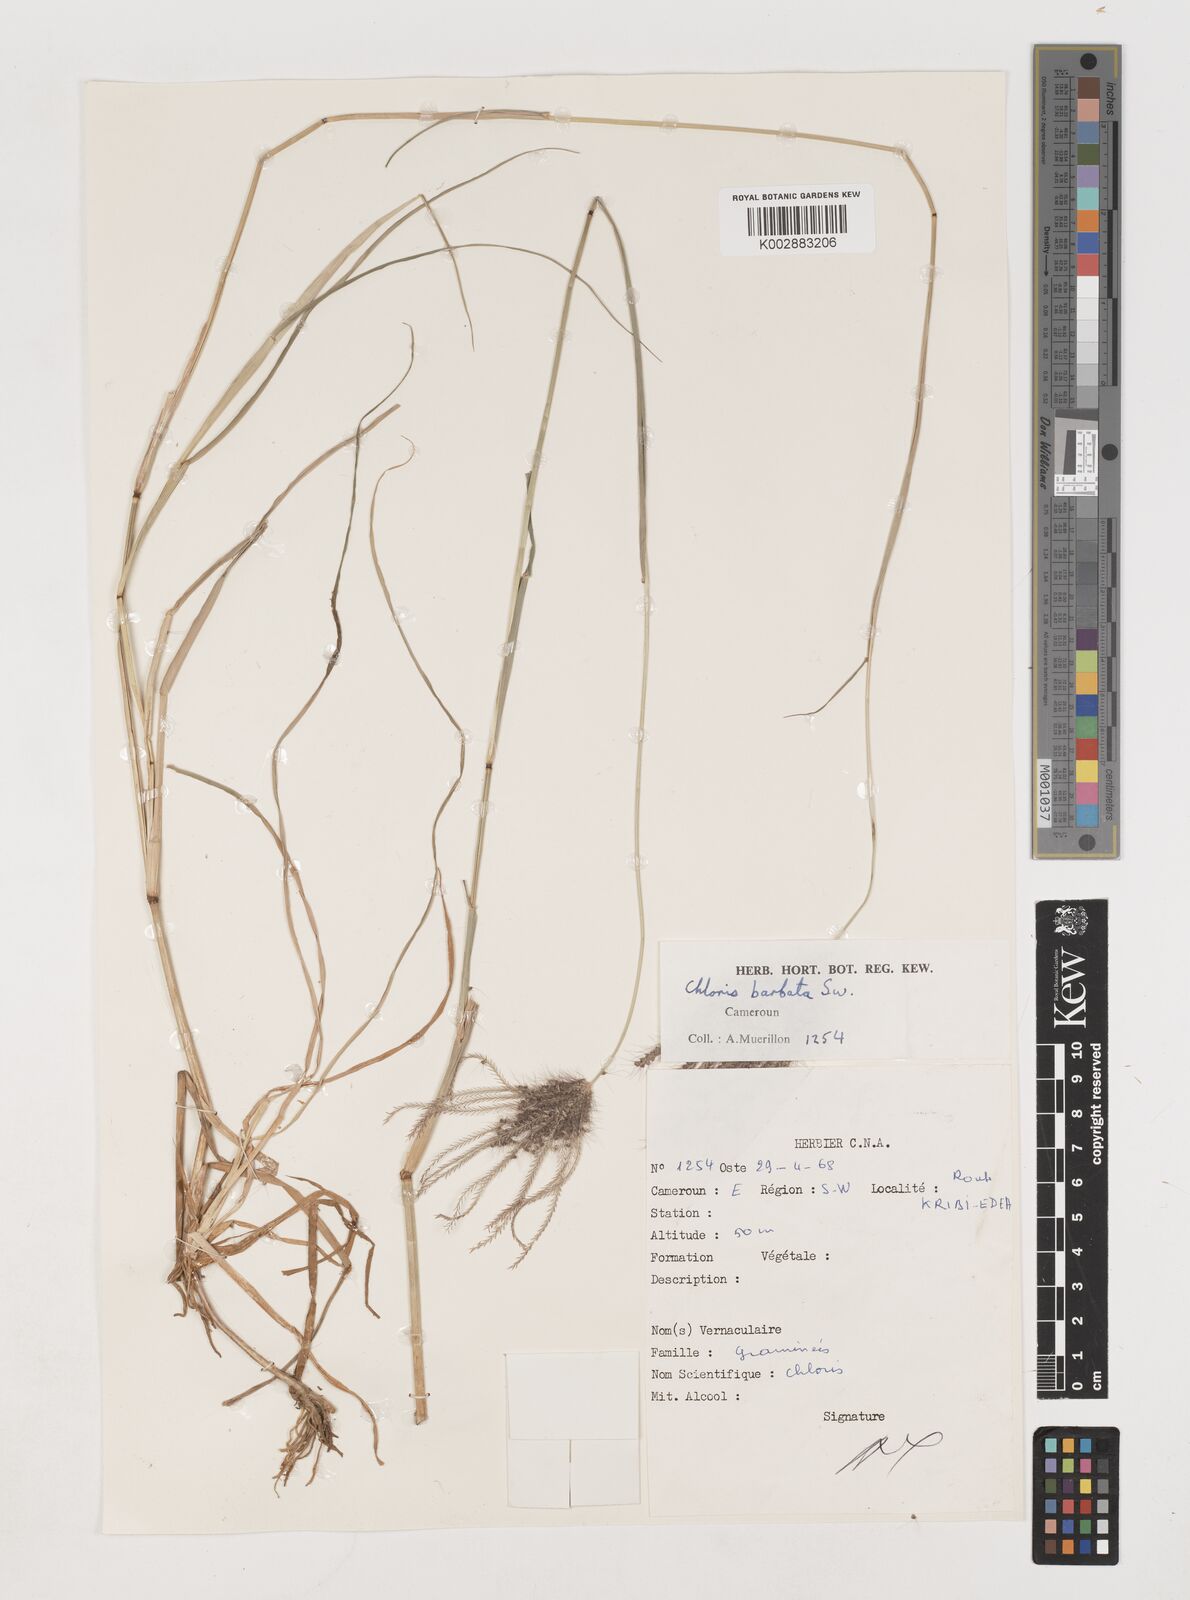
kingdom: Plantae
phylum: Tracheophyta
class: Liliopsida
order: Poales
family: Poaceae
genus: Chloris
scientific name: Chloris barbata
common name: Swollen fingergrass
